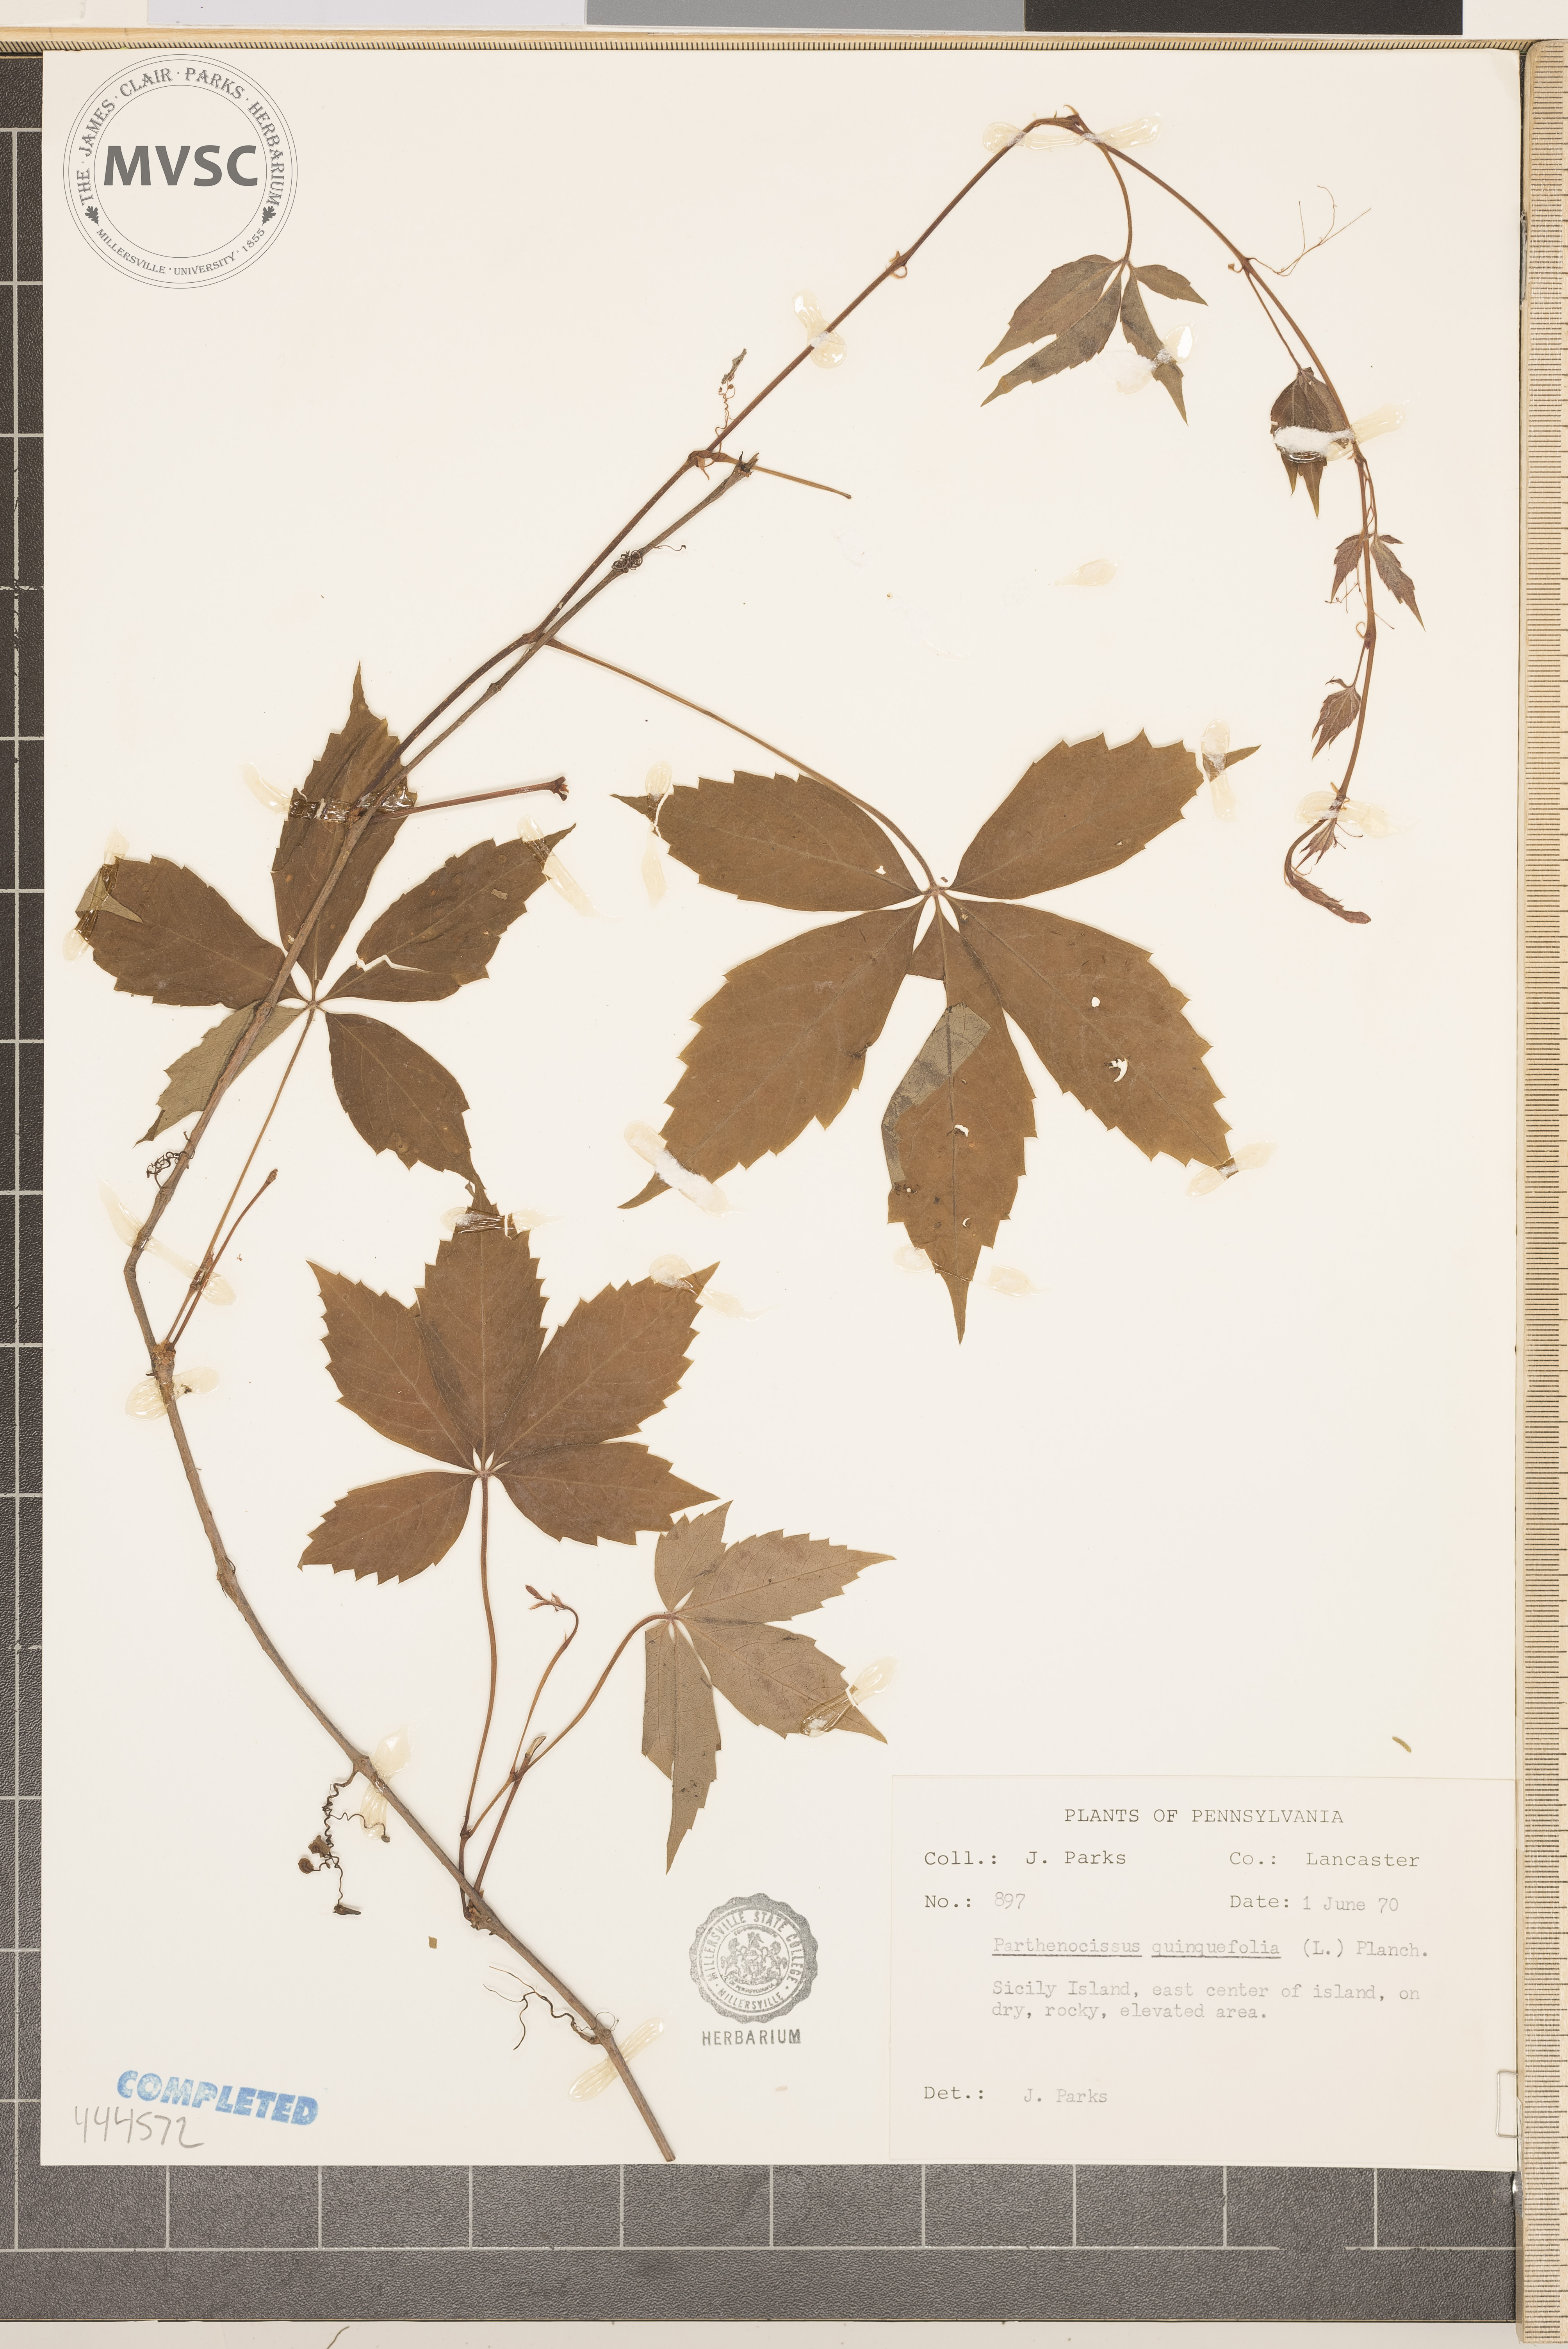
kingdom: Plantae
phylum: Tracheophyta
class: Magnoliopsida
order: Vitales
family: Vitaceae
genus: Parthenocissus
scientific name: Parthenocissus quinquefolia
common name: Virginia-creeper
